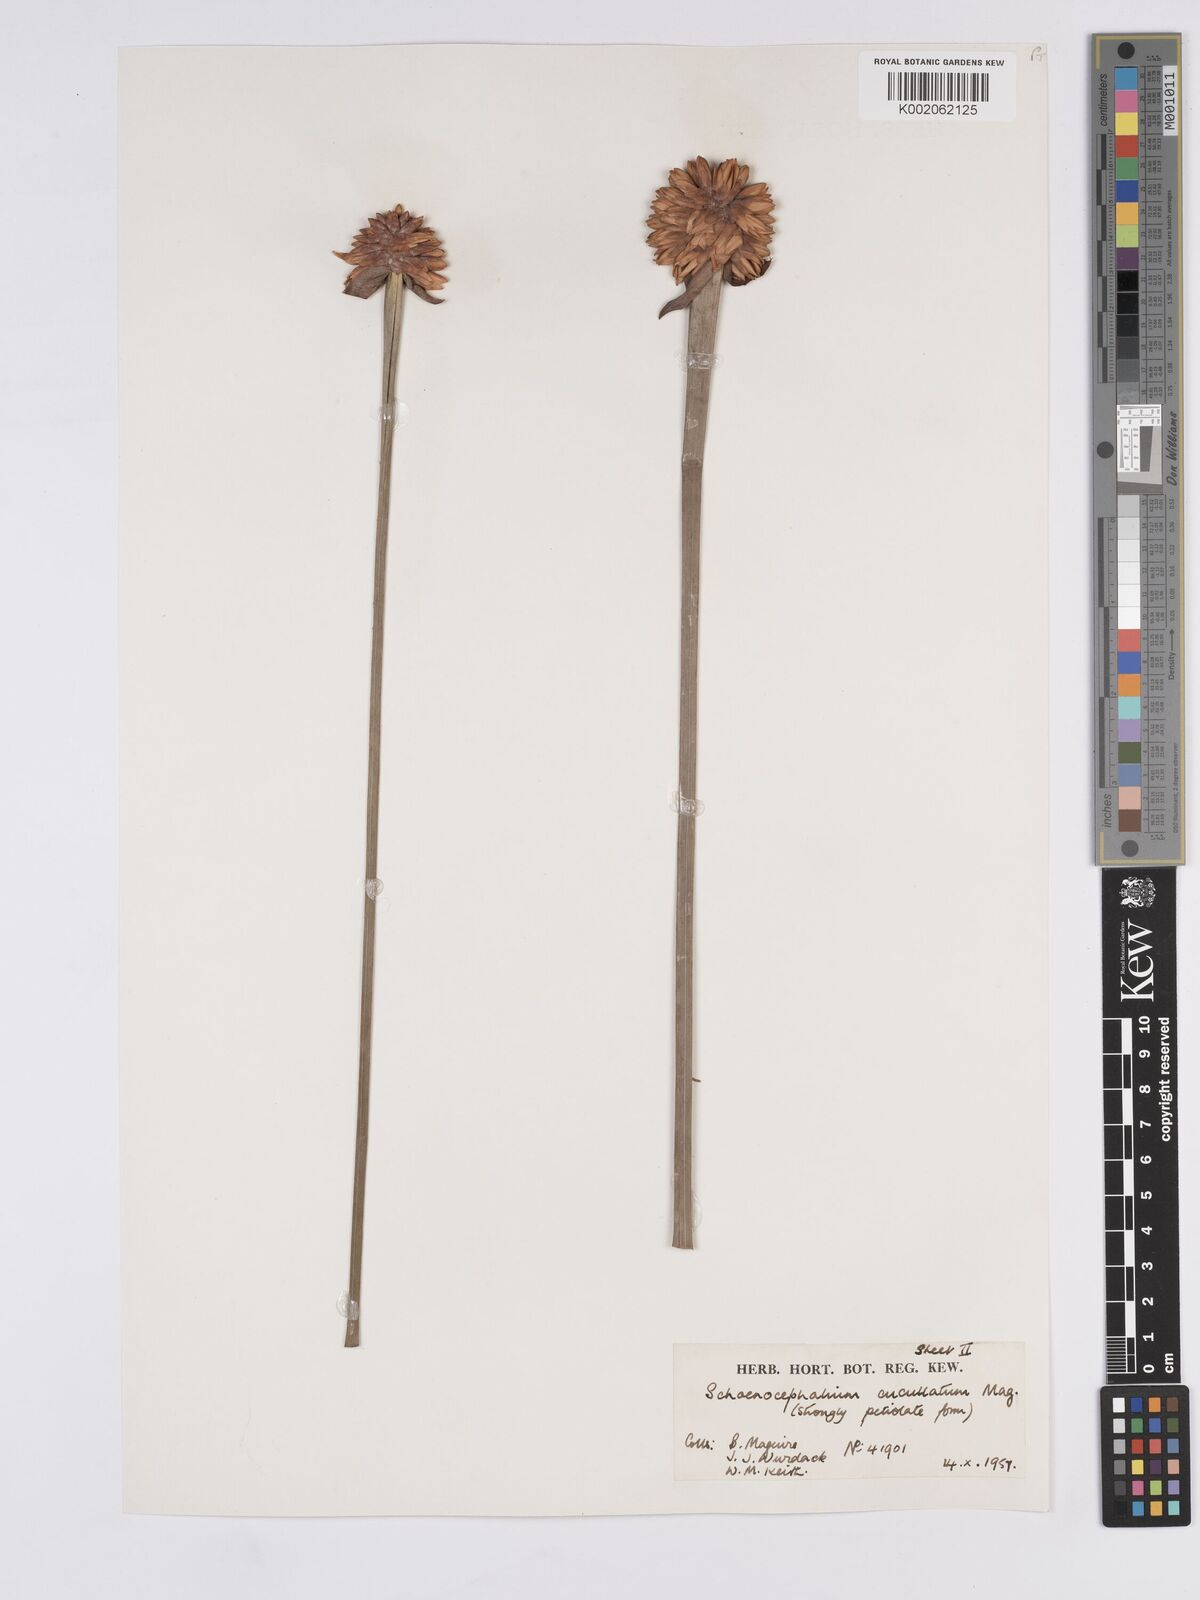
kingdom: Plantae
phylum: Tracheophyta
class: Liliopsida
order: Poales
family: Rapateaceae
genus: Schoenocephalium
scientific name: Schoenocephalium cucullatum
